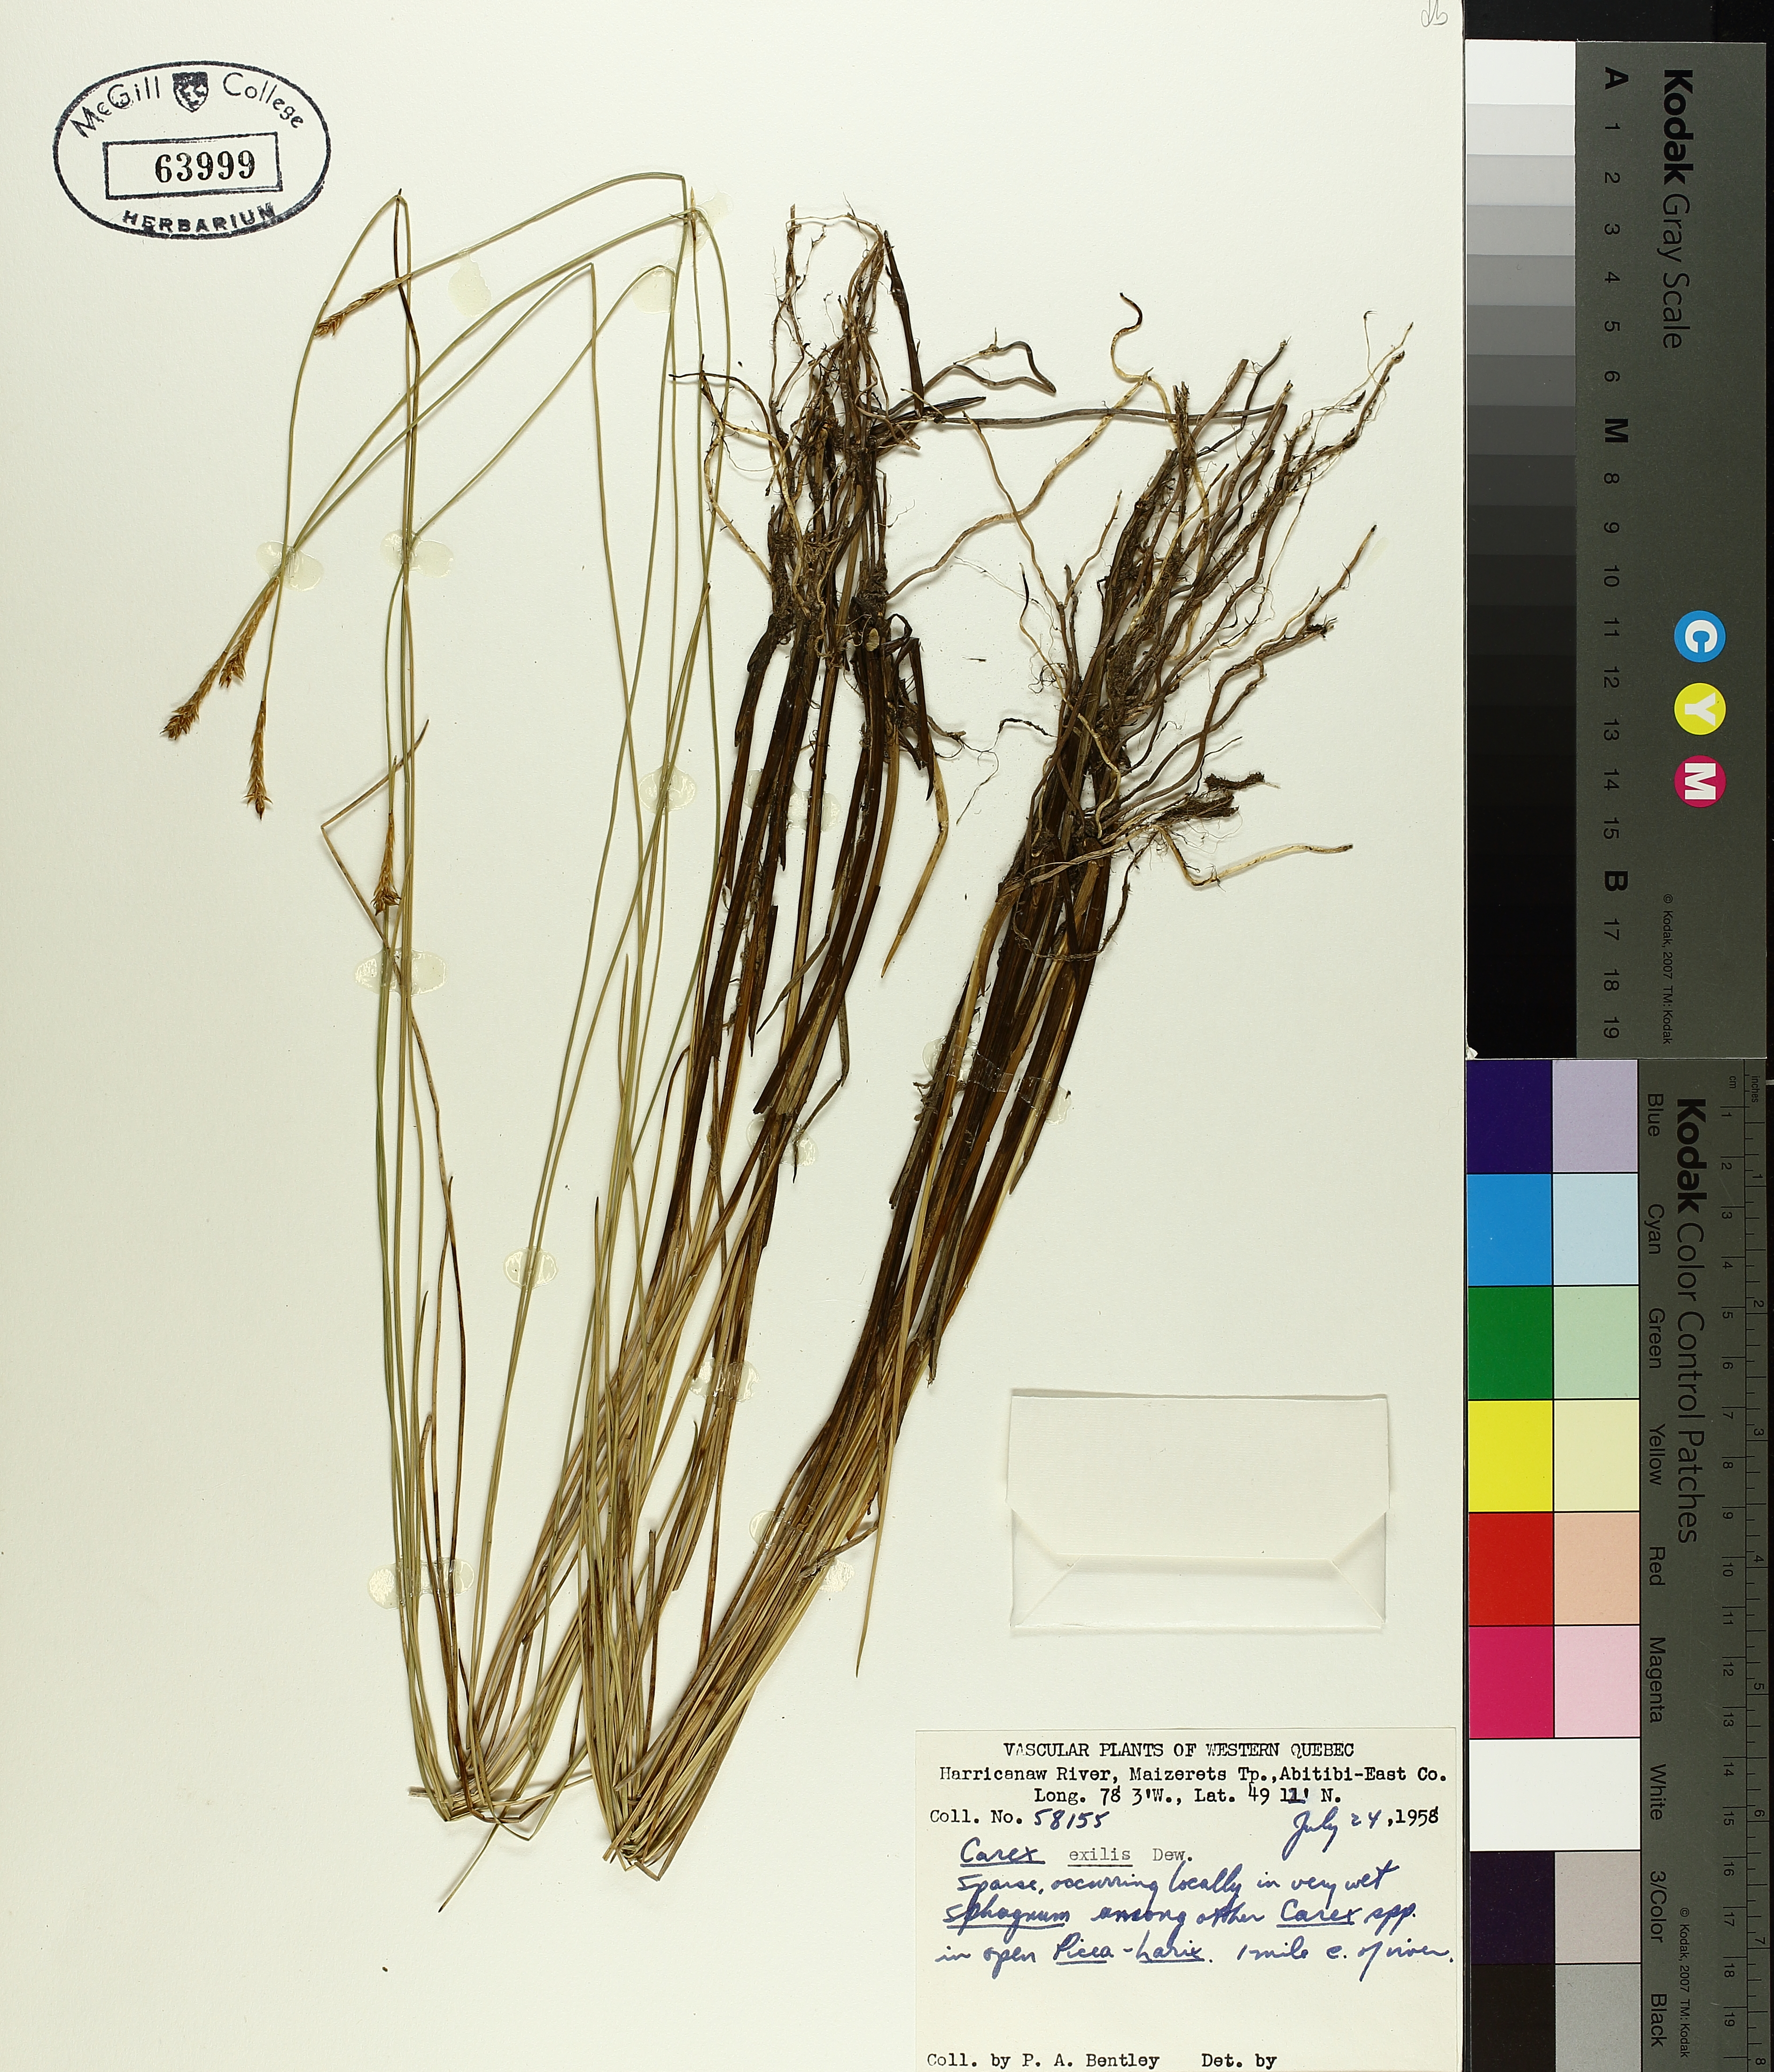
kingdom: Plantae
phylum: Tracheophyta
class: Liliopsida
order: Poales
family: Cyperaceae
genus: Carex
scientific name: Carex exilis
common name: Coastal sedge
